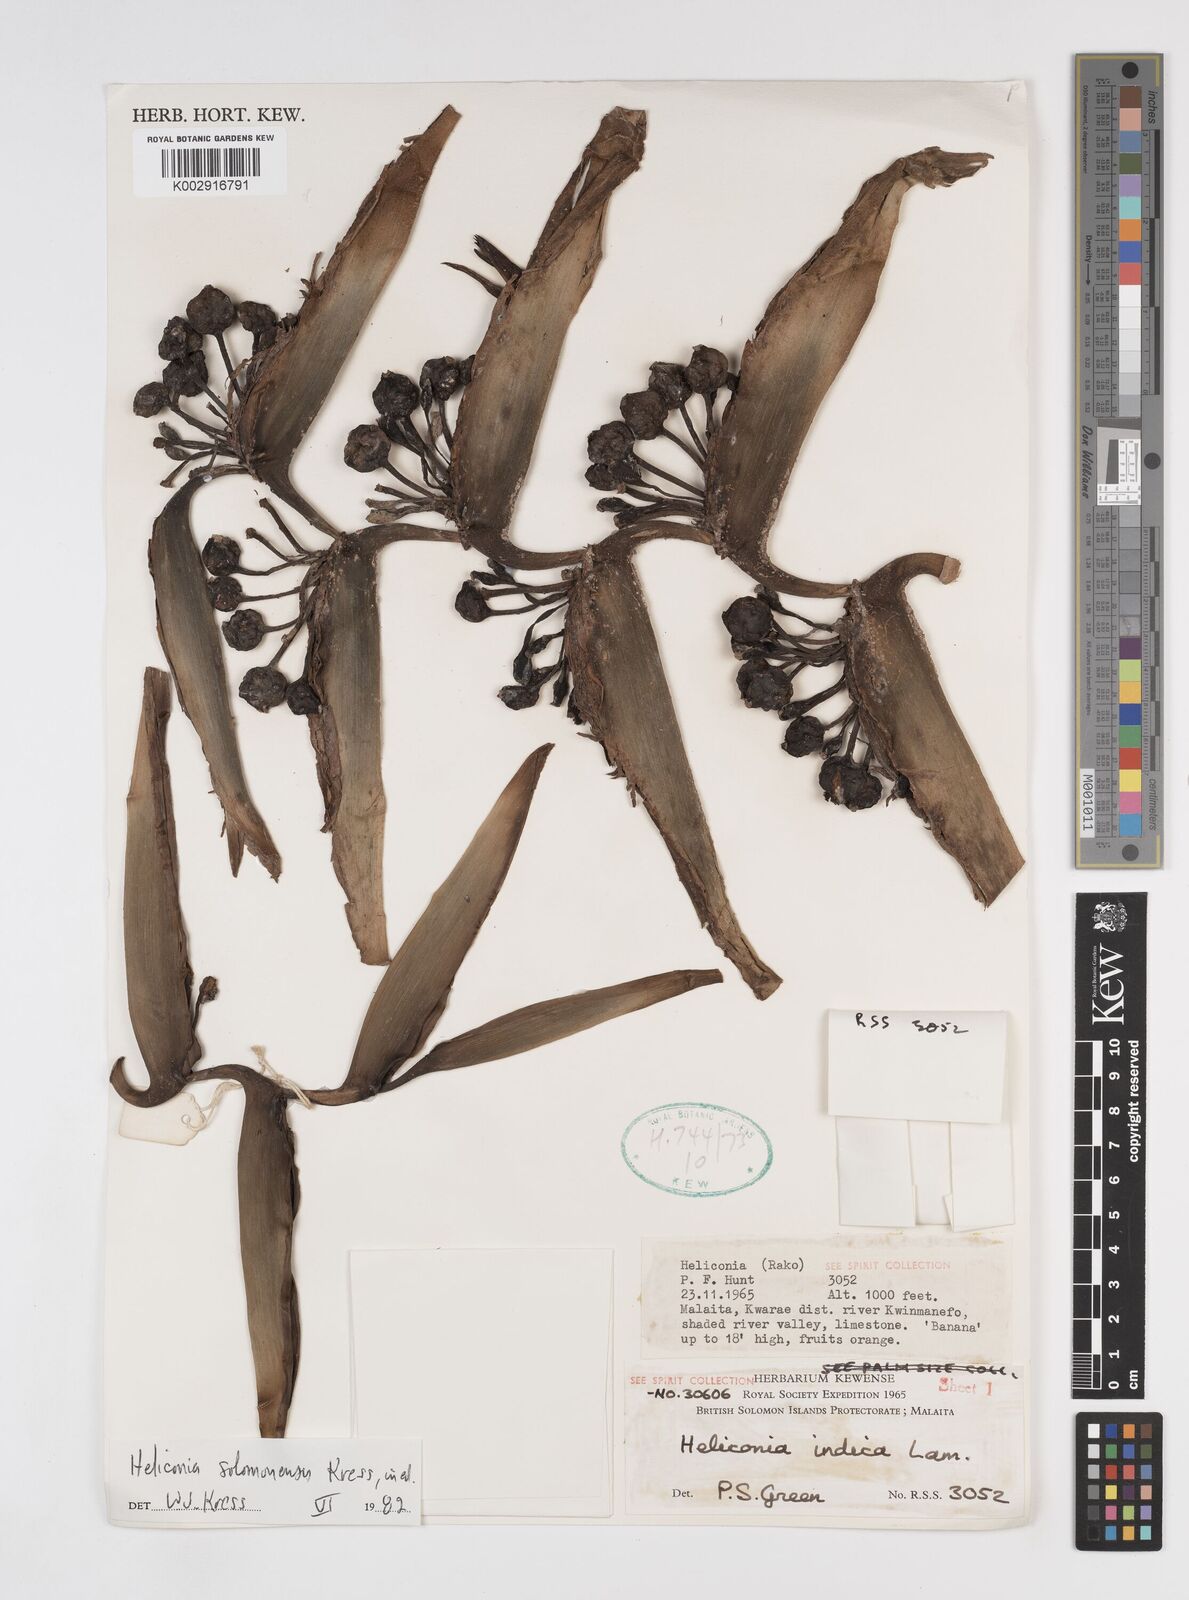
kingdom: Plantae
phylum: Tracheophyta
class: Liliopsida
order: Zingiberales
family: Heliconiaceae
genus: Heliconia
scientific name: Heliconia solomonensis
